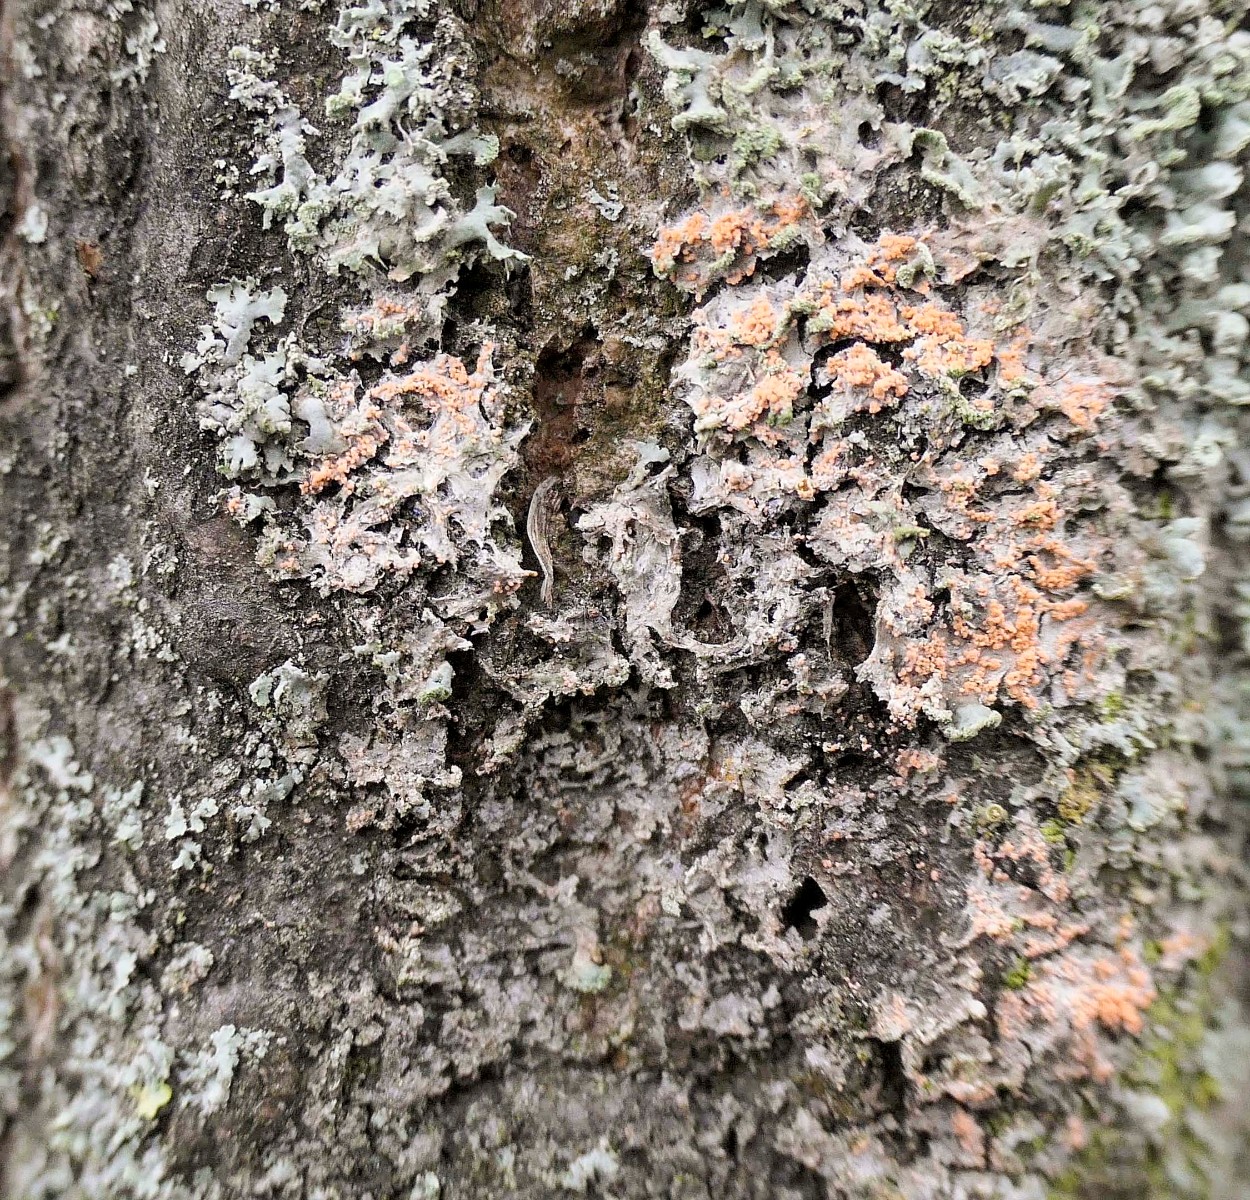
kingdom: Fungi
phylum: Basidiomycota
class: Agaricomycetes
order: Corticiales
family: Corticiaceae
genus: Erythricium
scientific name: Erythricium aurantiacum
